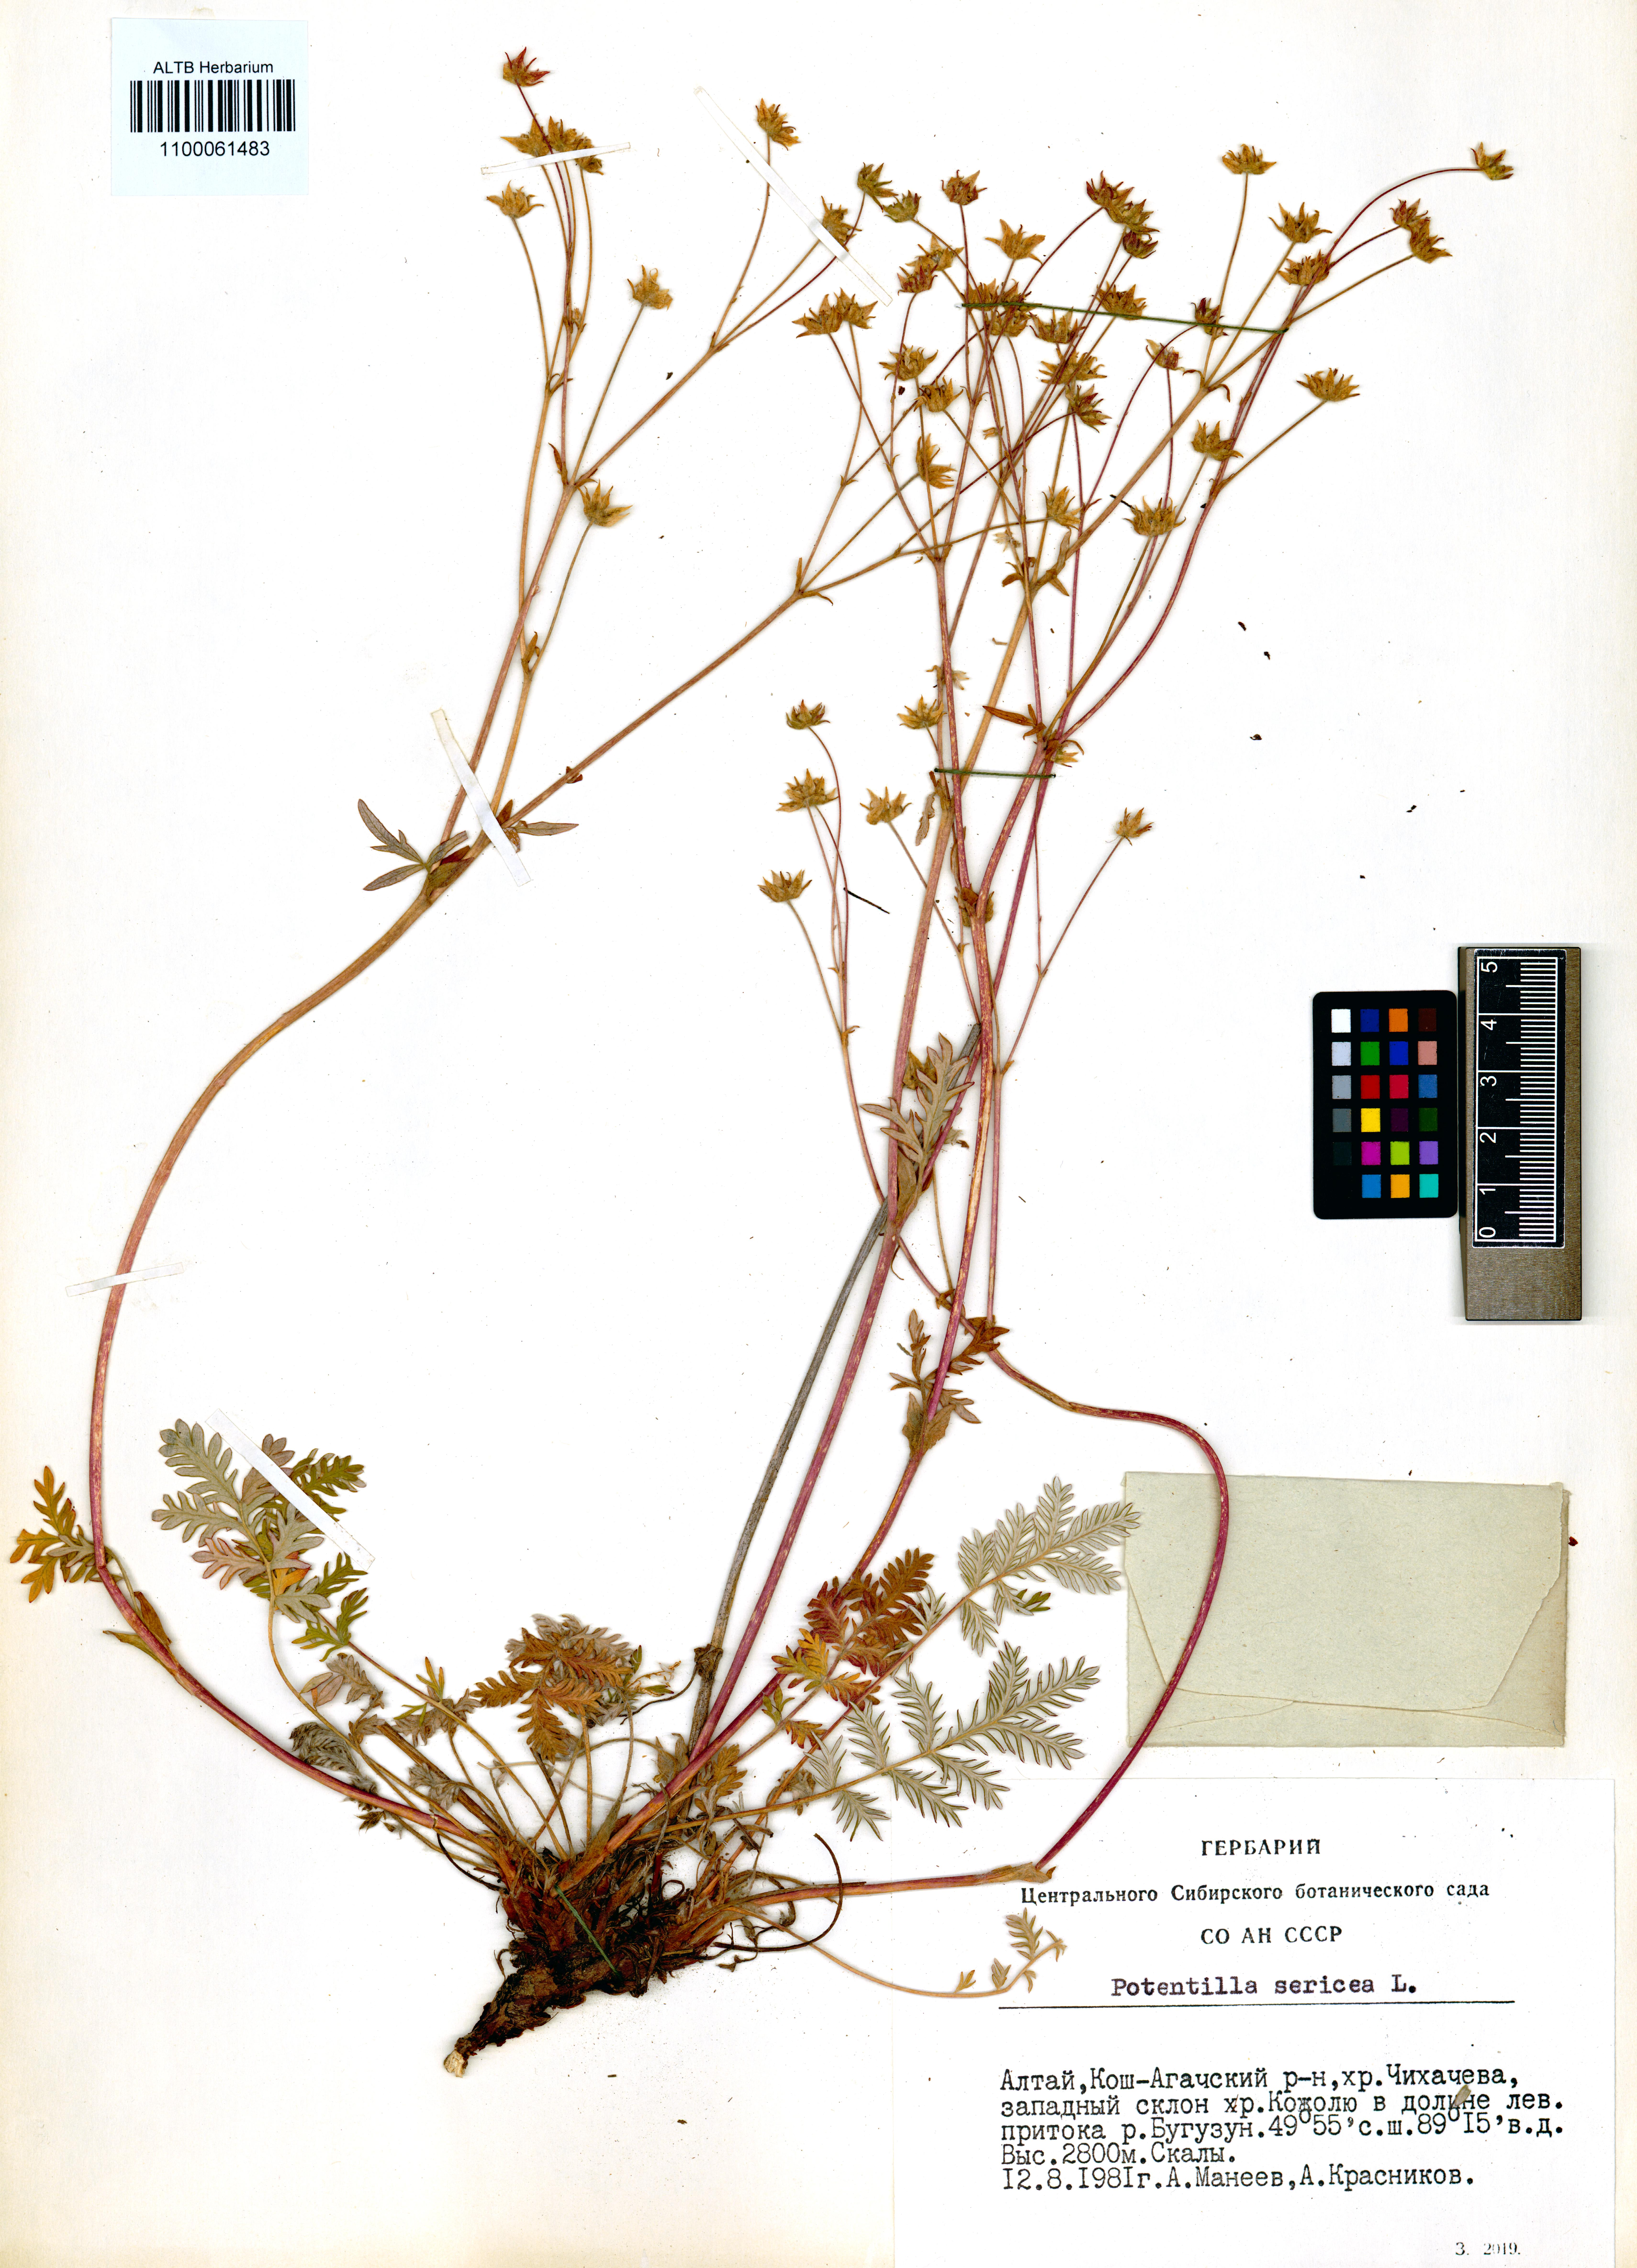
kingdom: Plantae
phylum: Tracheophyta
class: Magnoliopsida
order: Rosales
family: Rosaceae
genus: Potentilla
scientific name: Potentilla sericea
